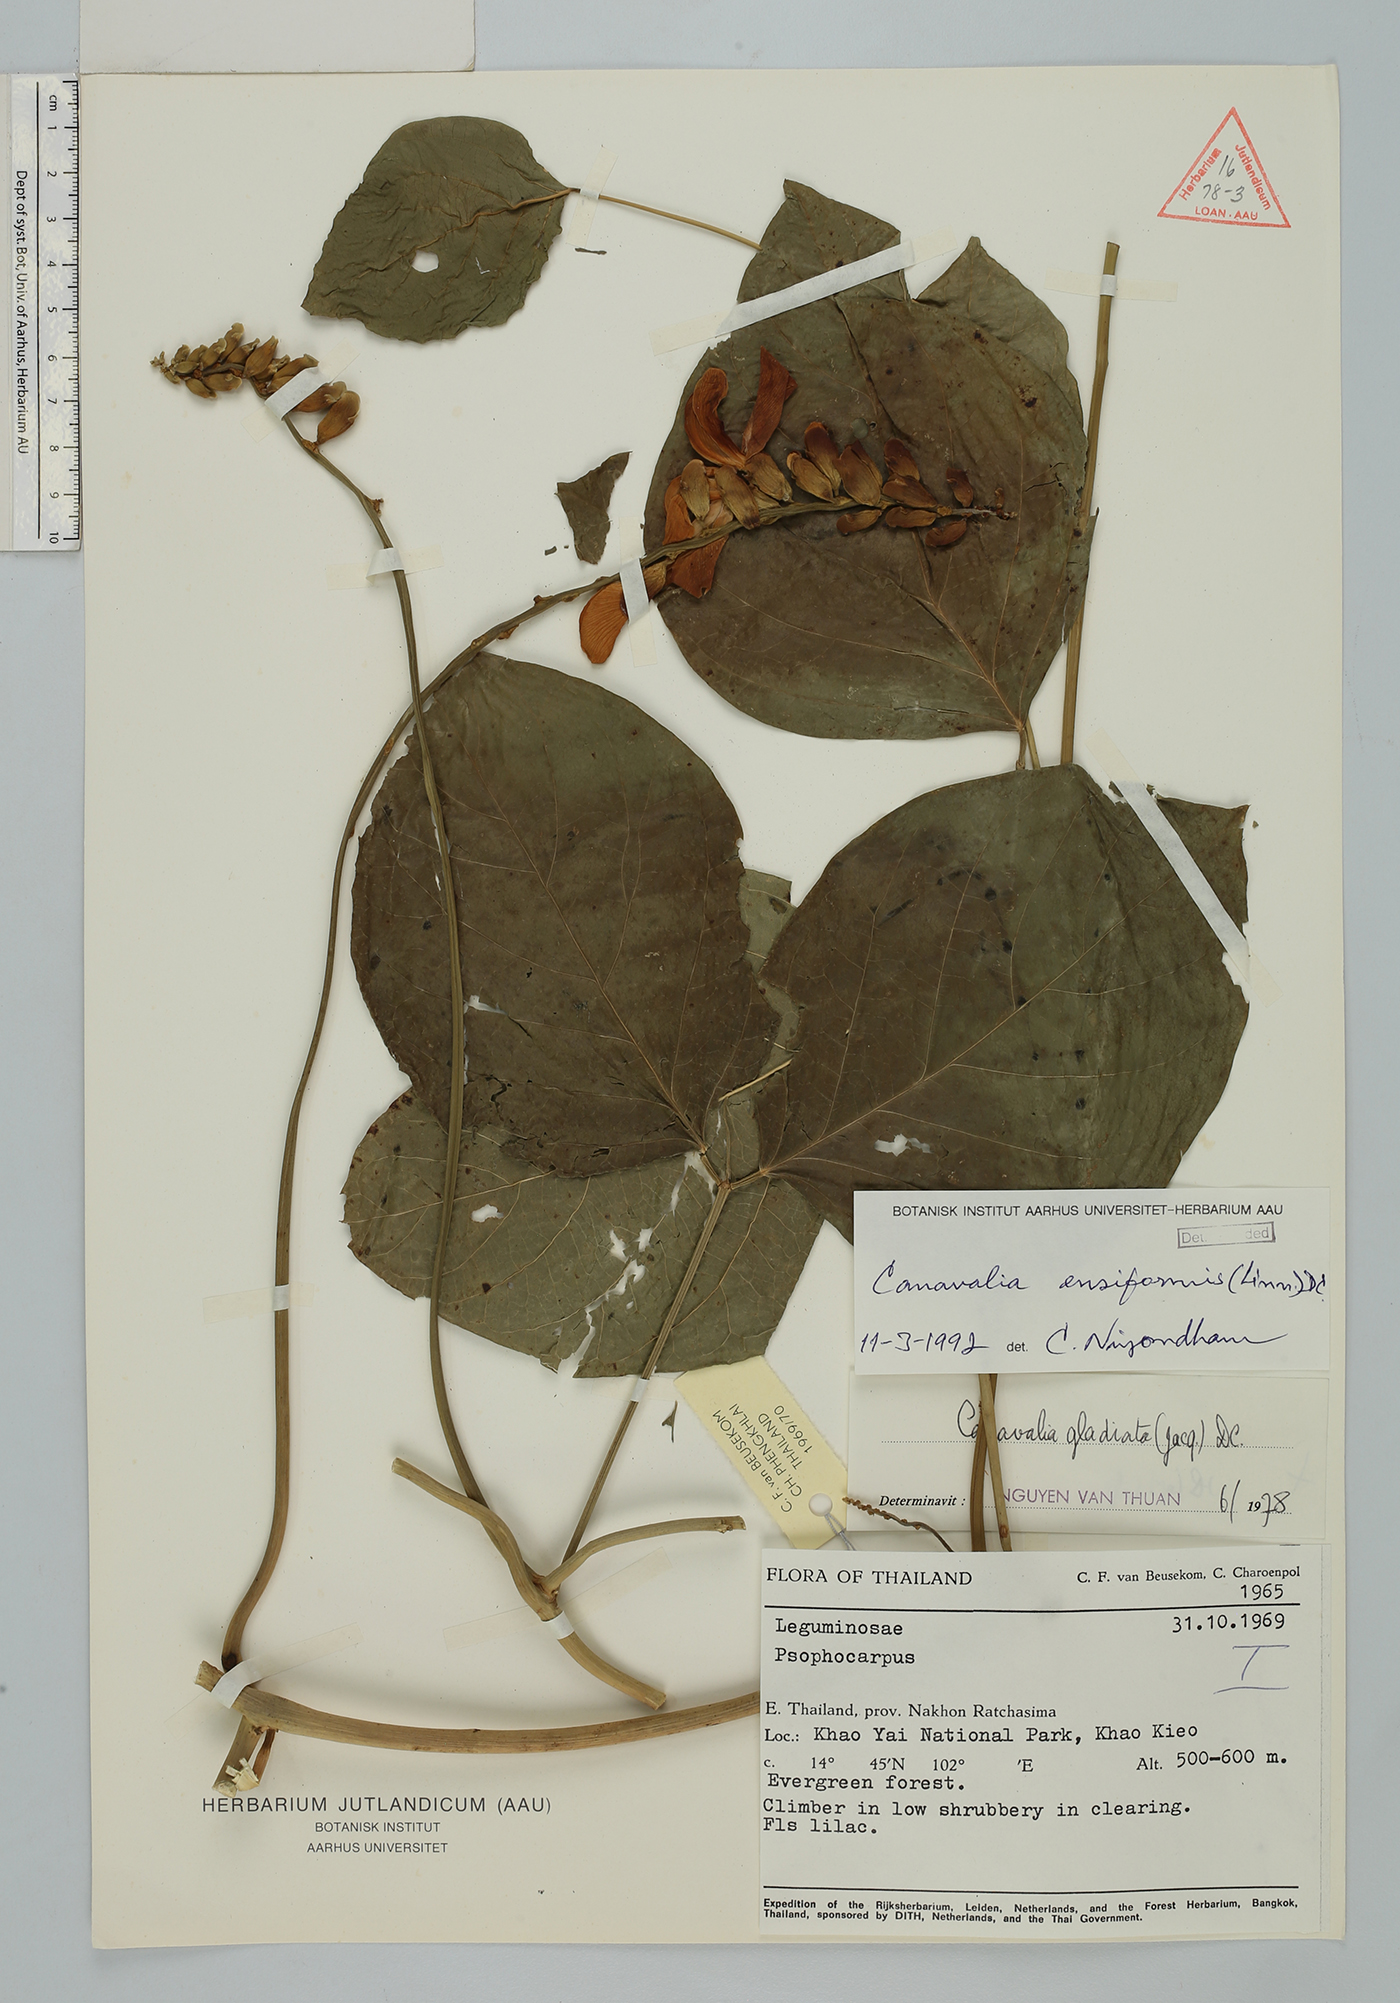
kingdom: Plantae
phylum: Tracheophyta
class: Magnoliopsida
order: Fabales
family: Fabaceae
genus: Canavalia
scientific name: Canavalia gladiata
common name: Scimitar-bean
